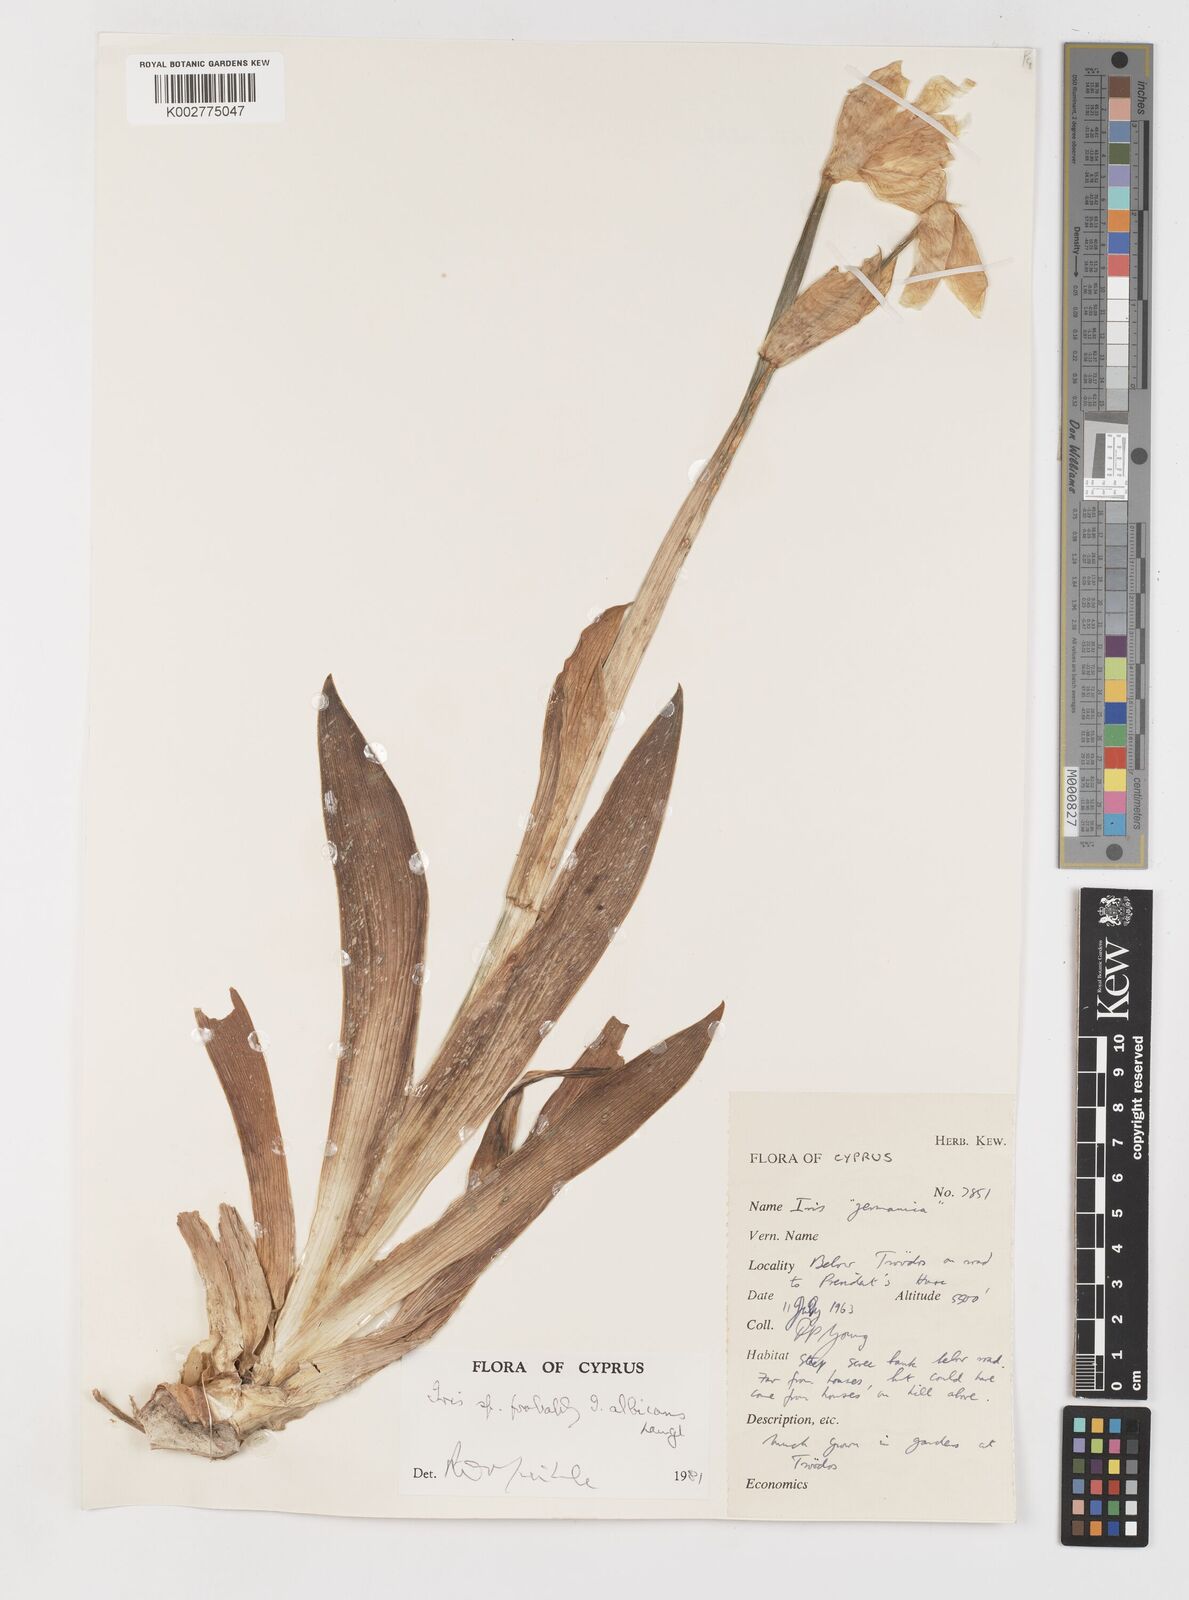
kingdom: Plantae
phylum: Tracheophyta
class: Liliopsida
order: Asparagales
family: Iridaceae
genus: Iris
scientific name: Iris florentina
